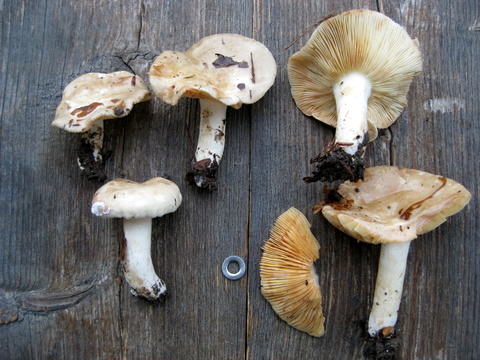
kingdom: Fungi
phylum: Basidiomycota
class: Agaricomycetes
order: Russulales
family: Russulaceae
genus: Lactarius
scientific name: Lactarius acris
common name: rosamælket mælkehat
